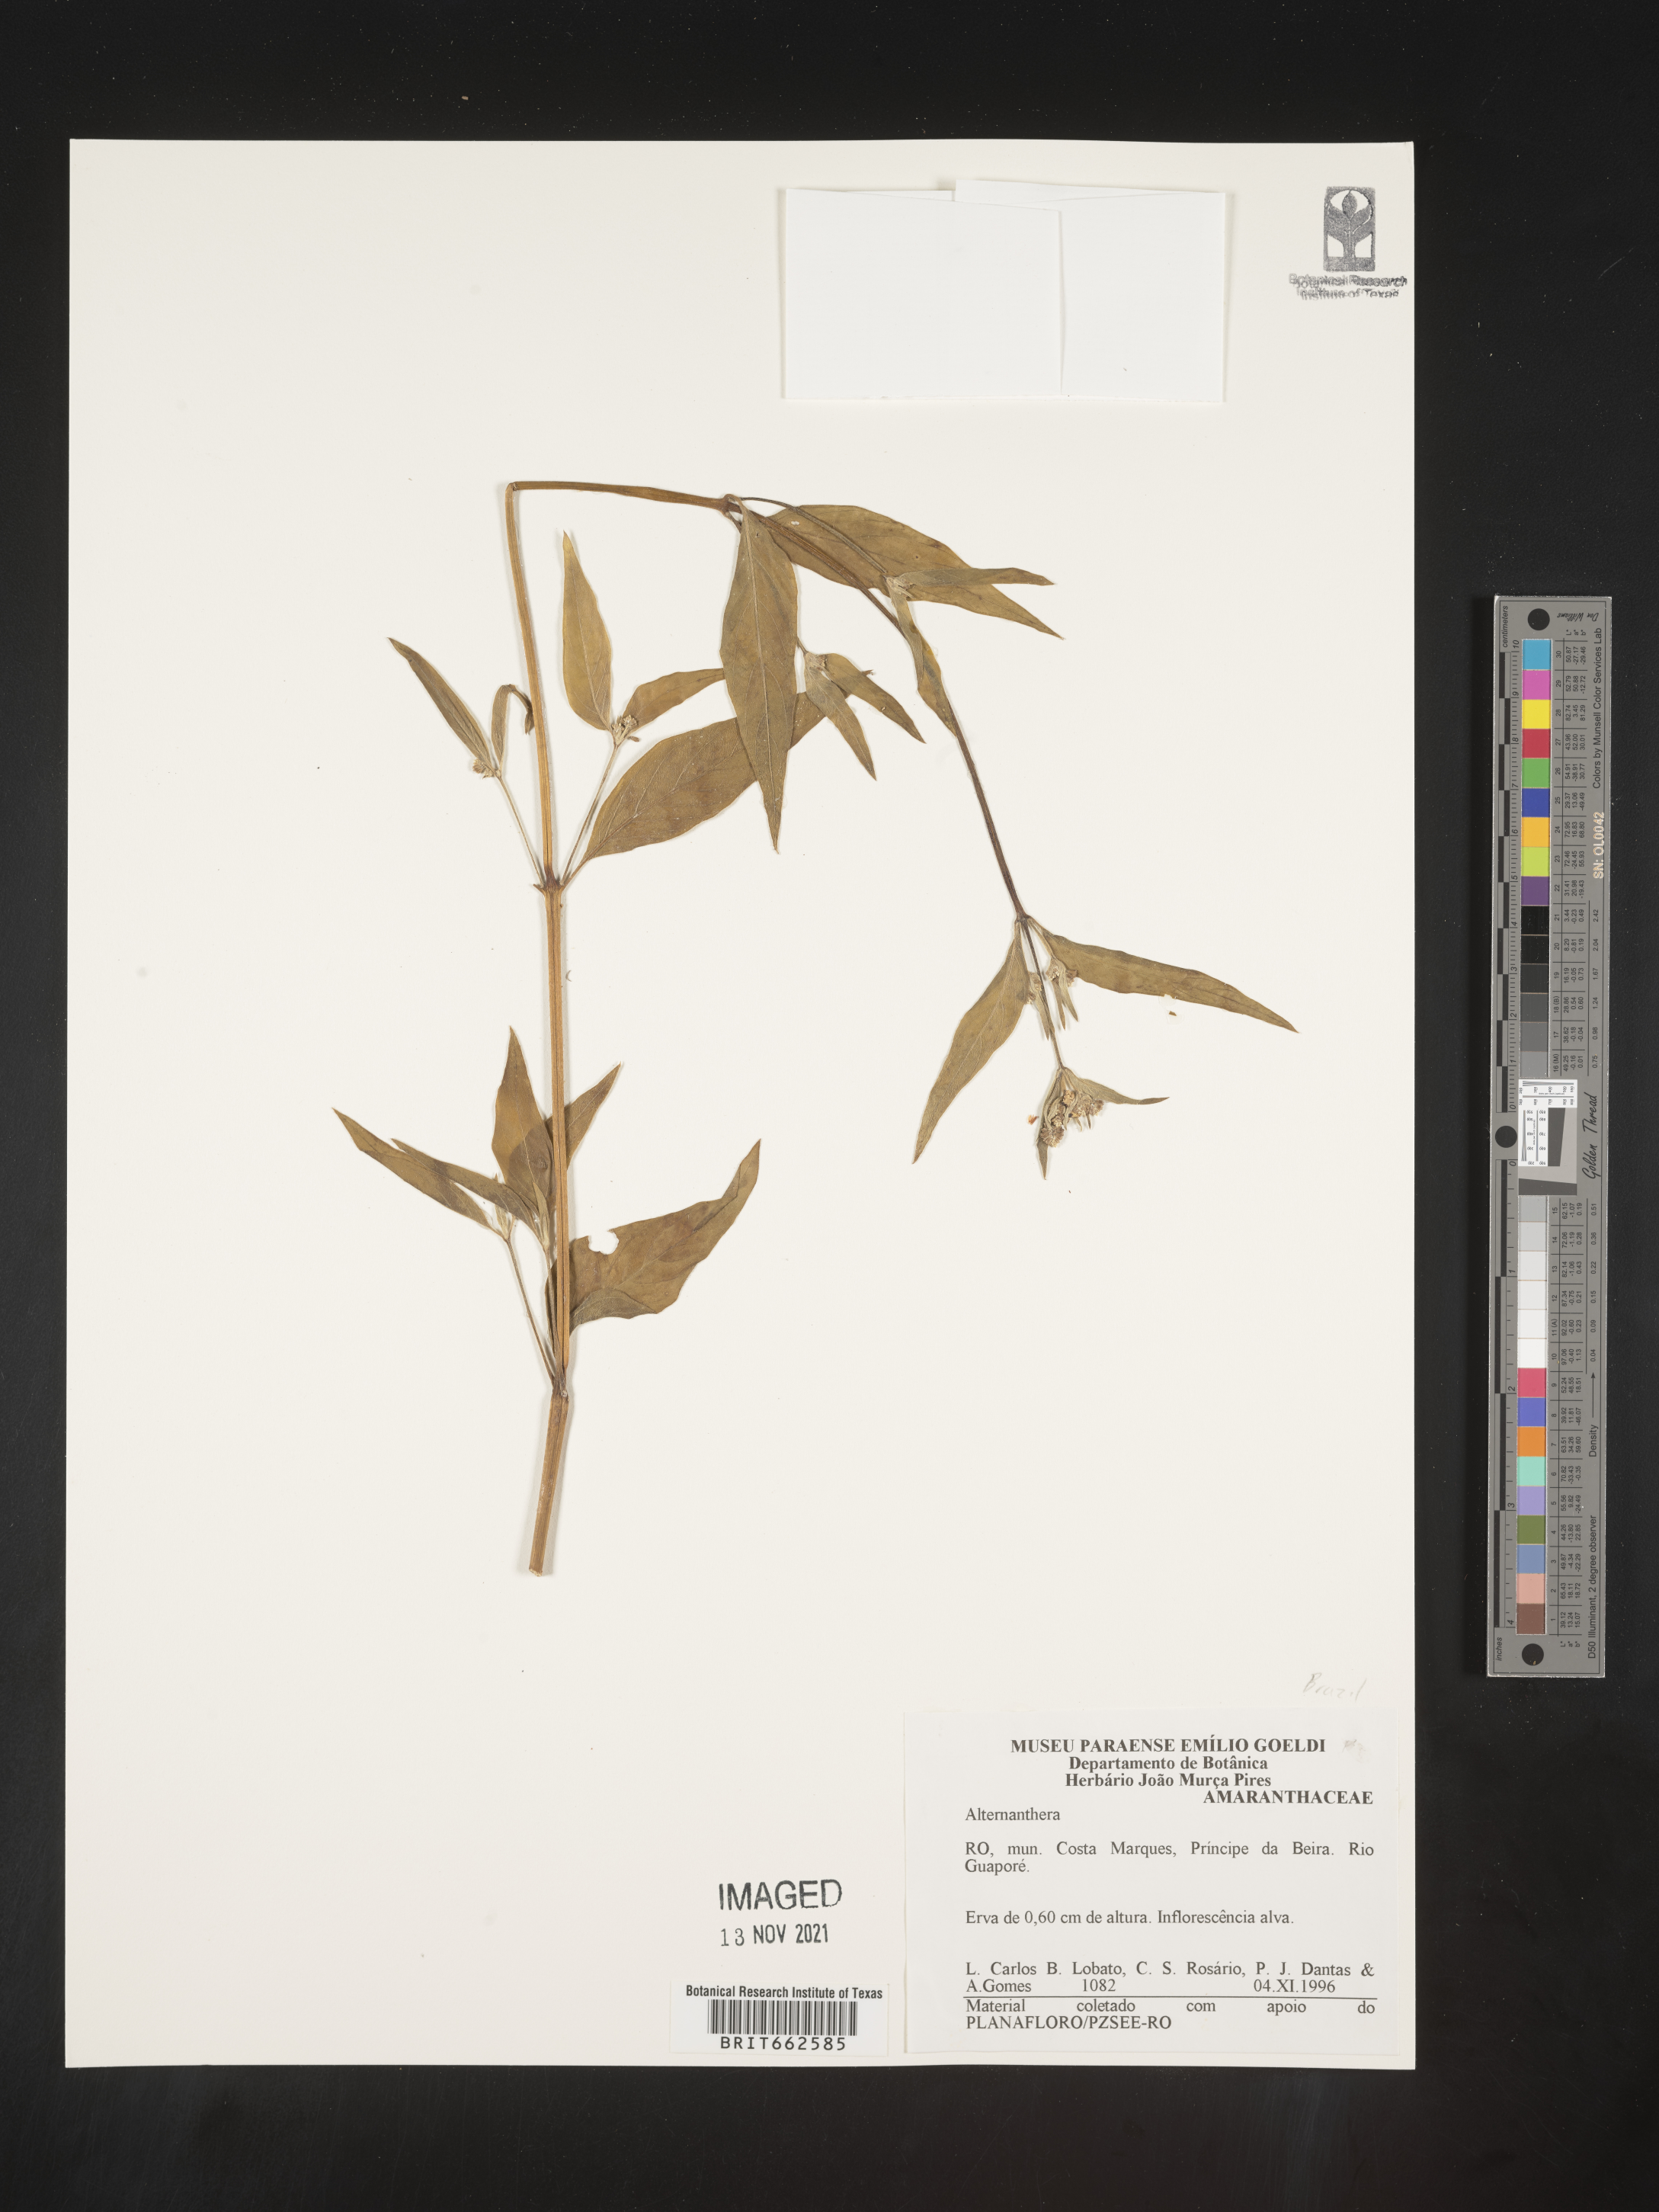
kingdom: Plantae
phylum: Tracheophyta
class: Magnoliopsida
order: Caryophyllales
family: Amaranthaceae
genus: Alternanthera
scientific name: Alternanthera
